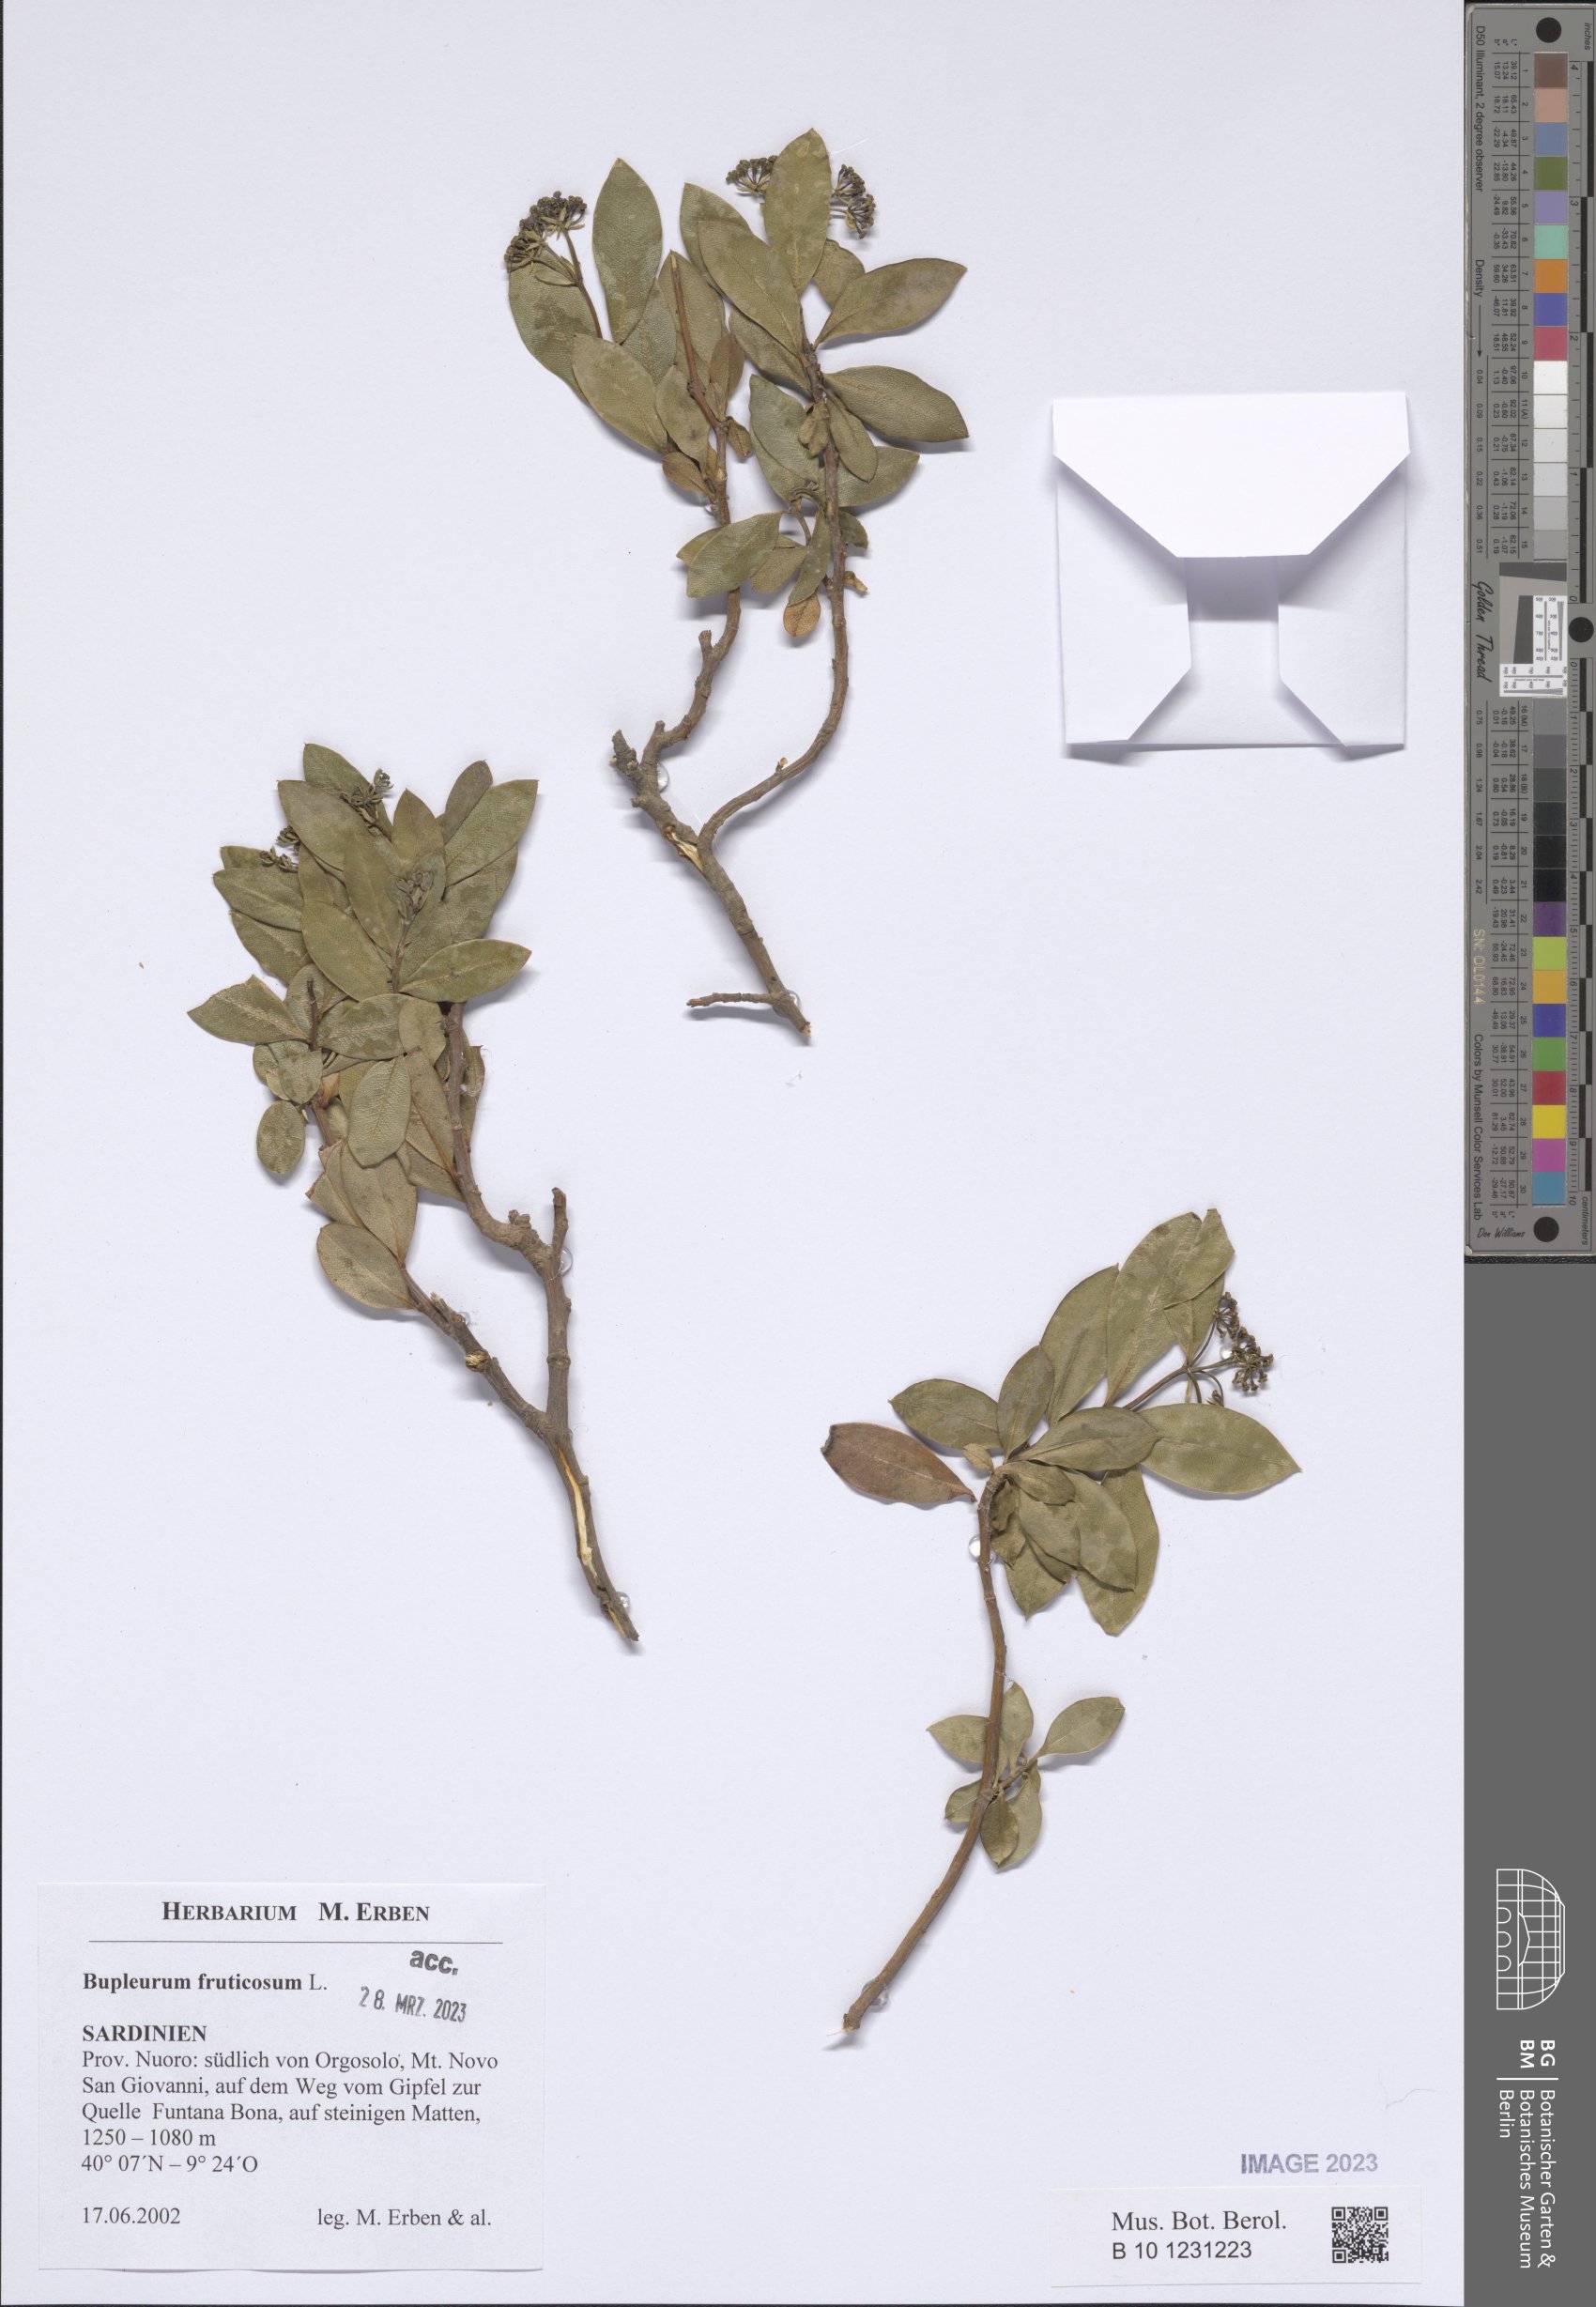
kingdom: Plantae
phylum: Tracheophyta
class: Magnoliopsida
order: Apiales
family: Apiaceae
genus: Bupleurum
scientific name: Bupleurum fruticosum
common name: Shrubby hare's-ear
